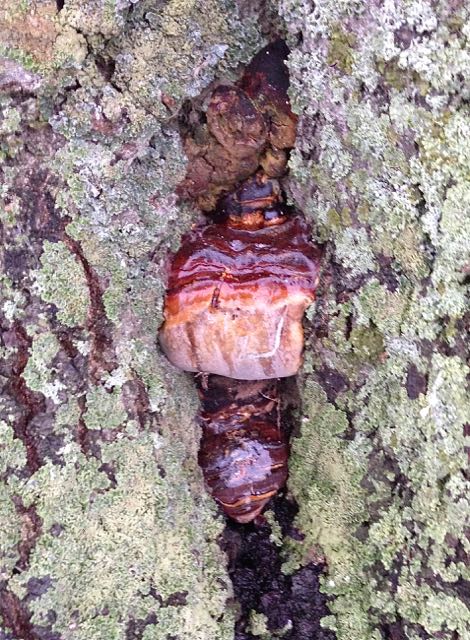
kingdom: Fungi
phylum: Basidiomycota
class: Agaricomycetes
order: Polyporales
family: Polyporaceae
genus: Ganoderma
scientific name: Ganoderma pfeifferi
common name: kobberrød lakporesvamp
